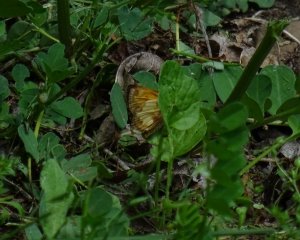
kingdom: Animalia
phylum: Arthropoda
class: Insecta
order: Lepidoptera
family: Hesperiidae
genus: Lon
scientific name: Lon hobomok
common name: Hobomok Skipper
